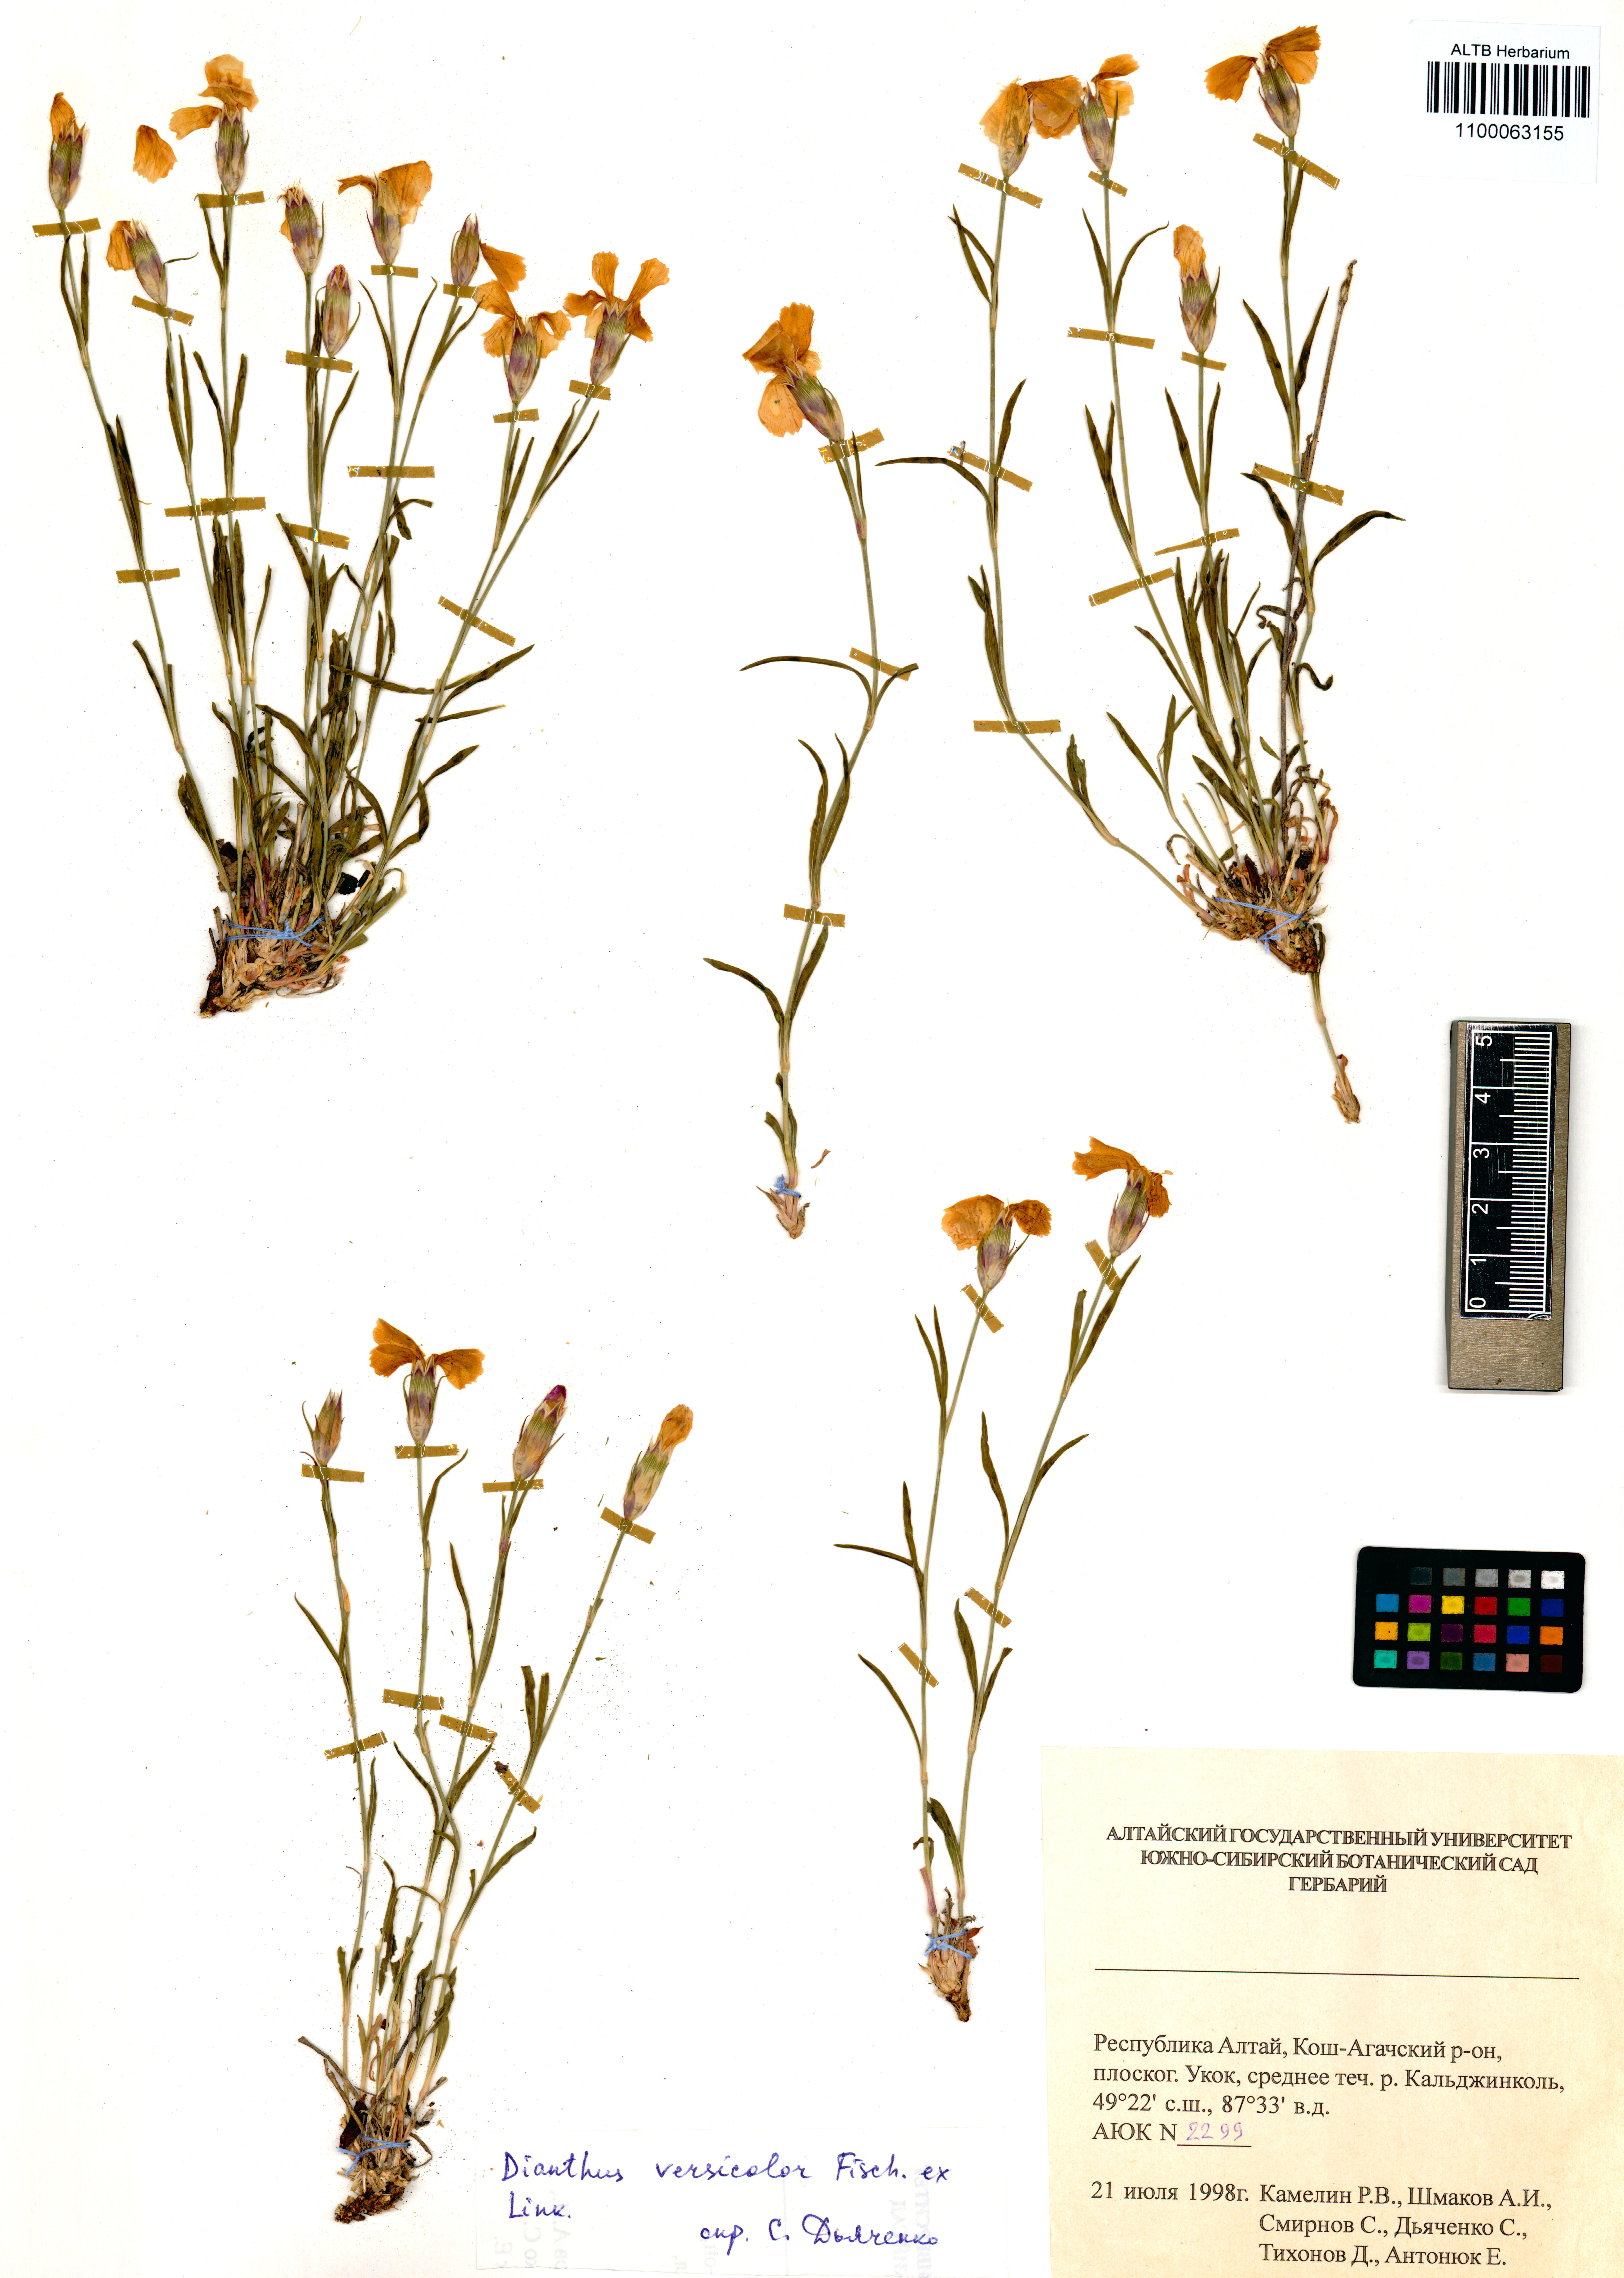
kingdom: Plantae
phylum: Tracheophyta
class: Magnoliopsida
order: Caryophyllales
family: Caryophyllaceae
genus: Dianthus
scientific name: Dianthus chinensis
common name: Rainbow pink
